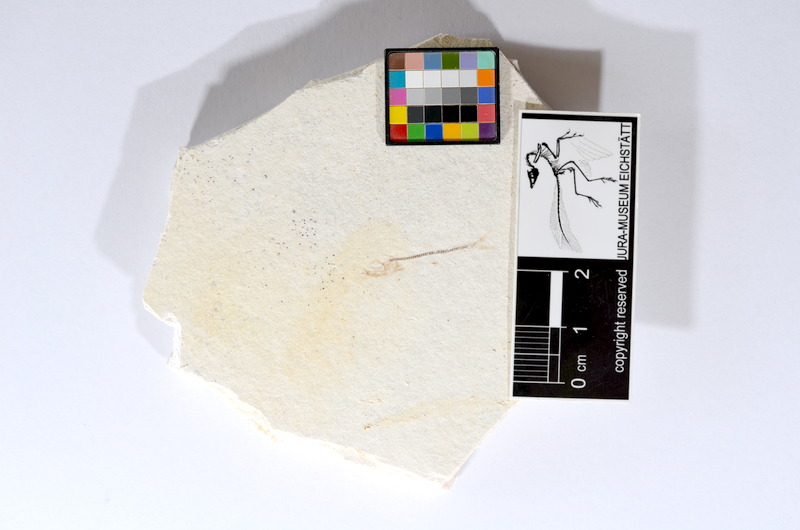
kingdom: Animalia
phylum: Chordata
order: Salmoniformes
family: Orthogonikleithridae
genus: Orthogonikleithrus
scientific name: Orthogonikleithrus hoelli
